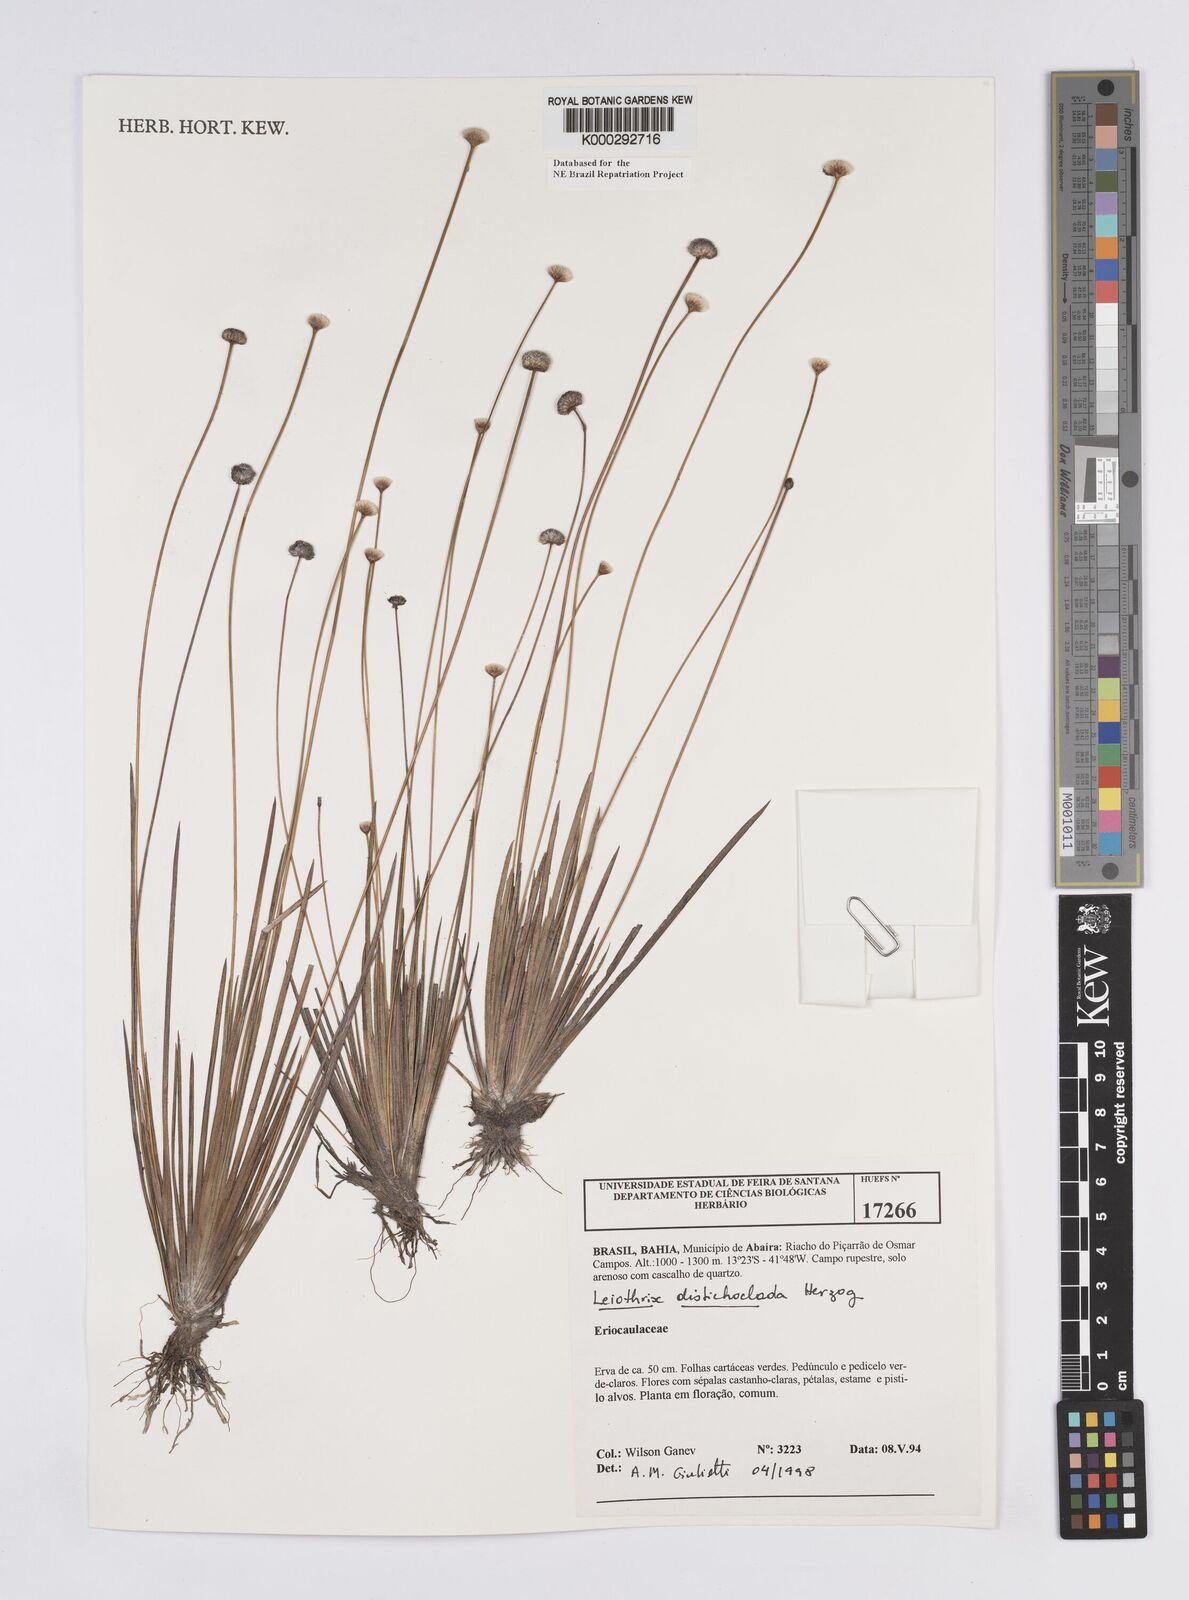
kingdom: Plantae
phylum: Tracheophyta
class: Liliopsida
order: Poales
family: Eriocaulaceae
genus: Leiothrix
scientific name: Leiothrix distichoclada
